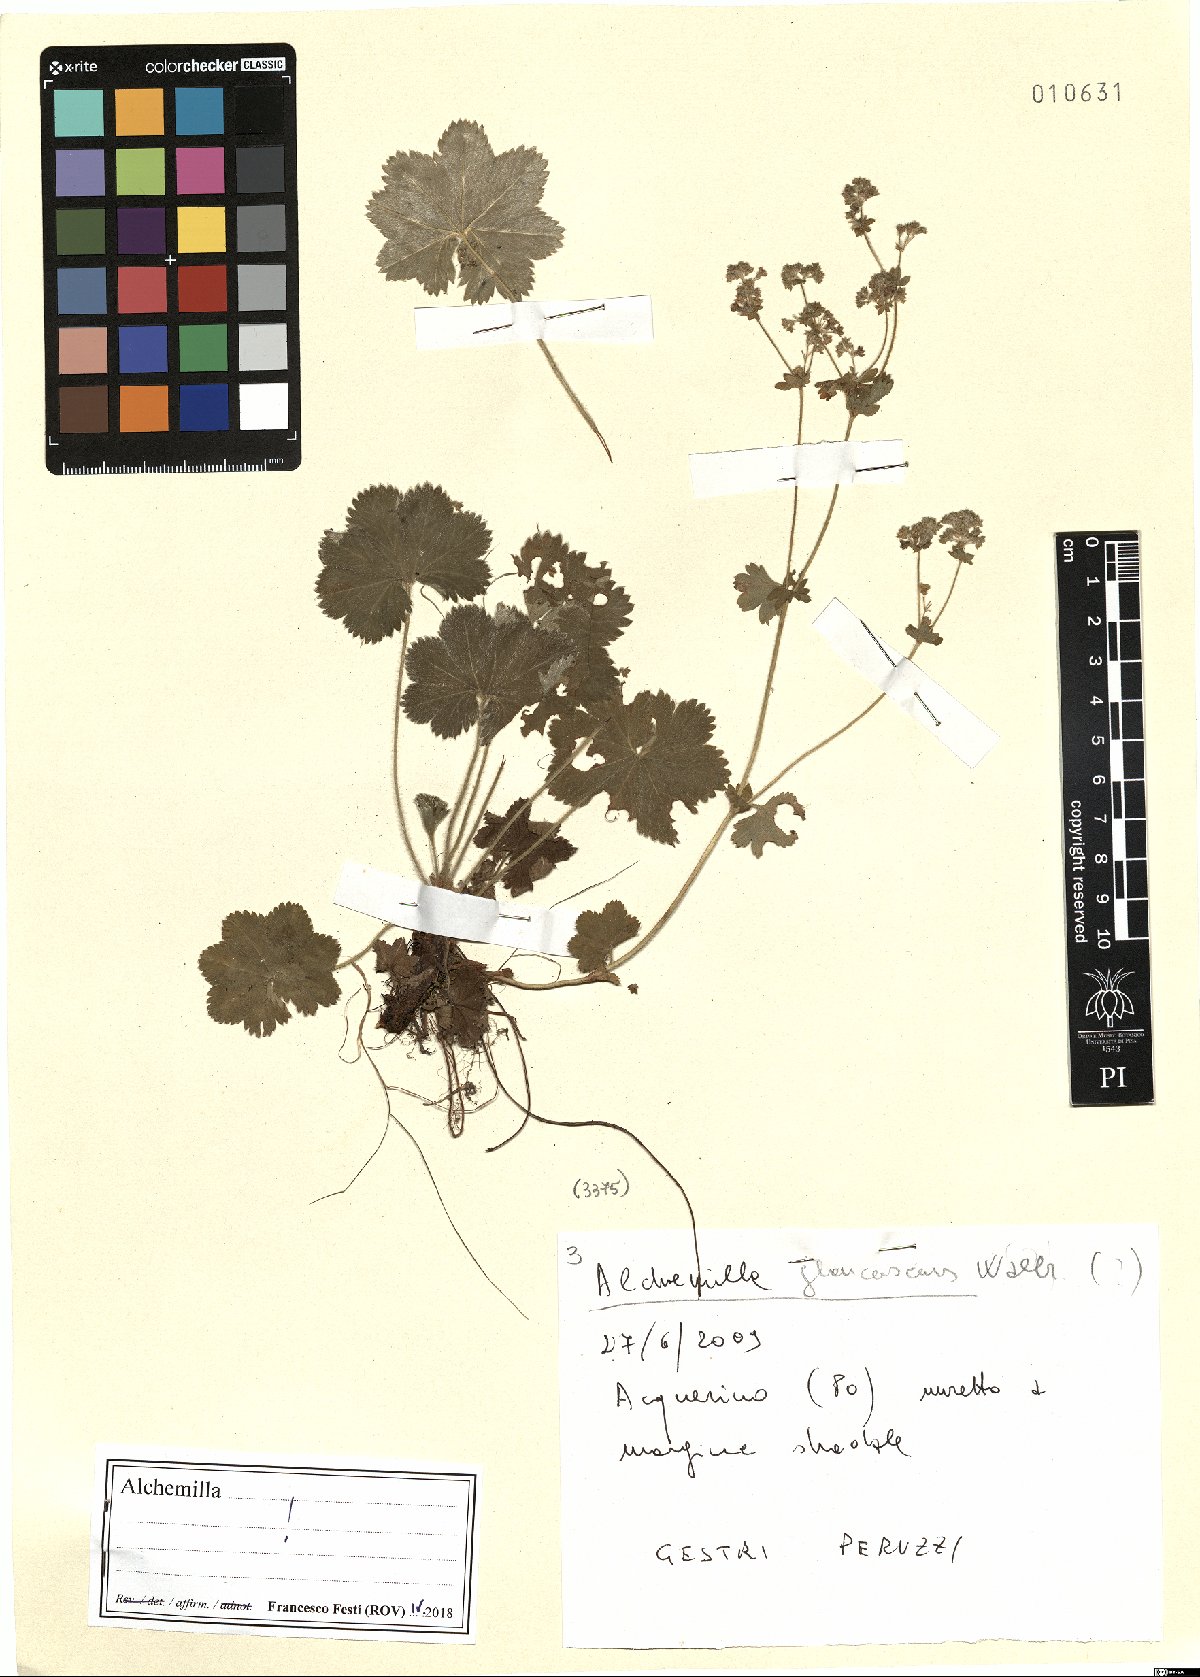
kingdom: Plantae
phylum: Tracheophyta
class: Magnoliopsida
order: Rosales
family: Rosaceae
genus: Alchemilla
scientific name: Alchemilla glaucescens
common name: Silky lady's mantle
